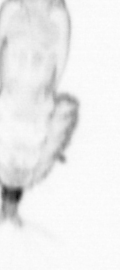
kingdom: Animalia
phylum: Annelida
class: Polychaeta
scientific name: Polychaeta
